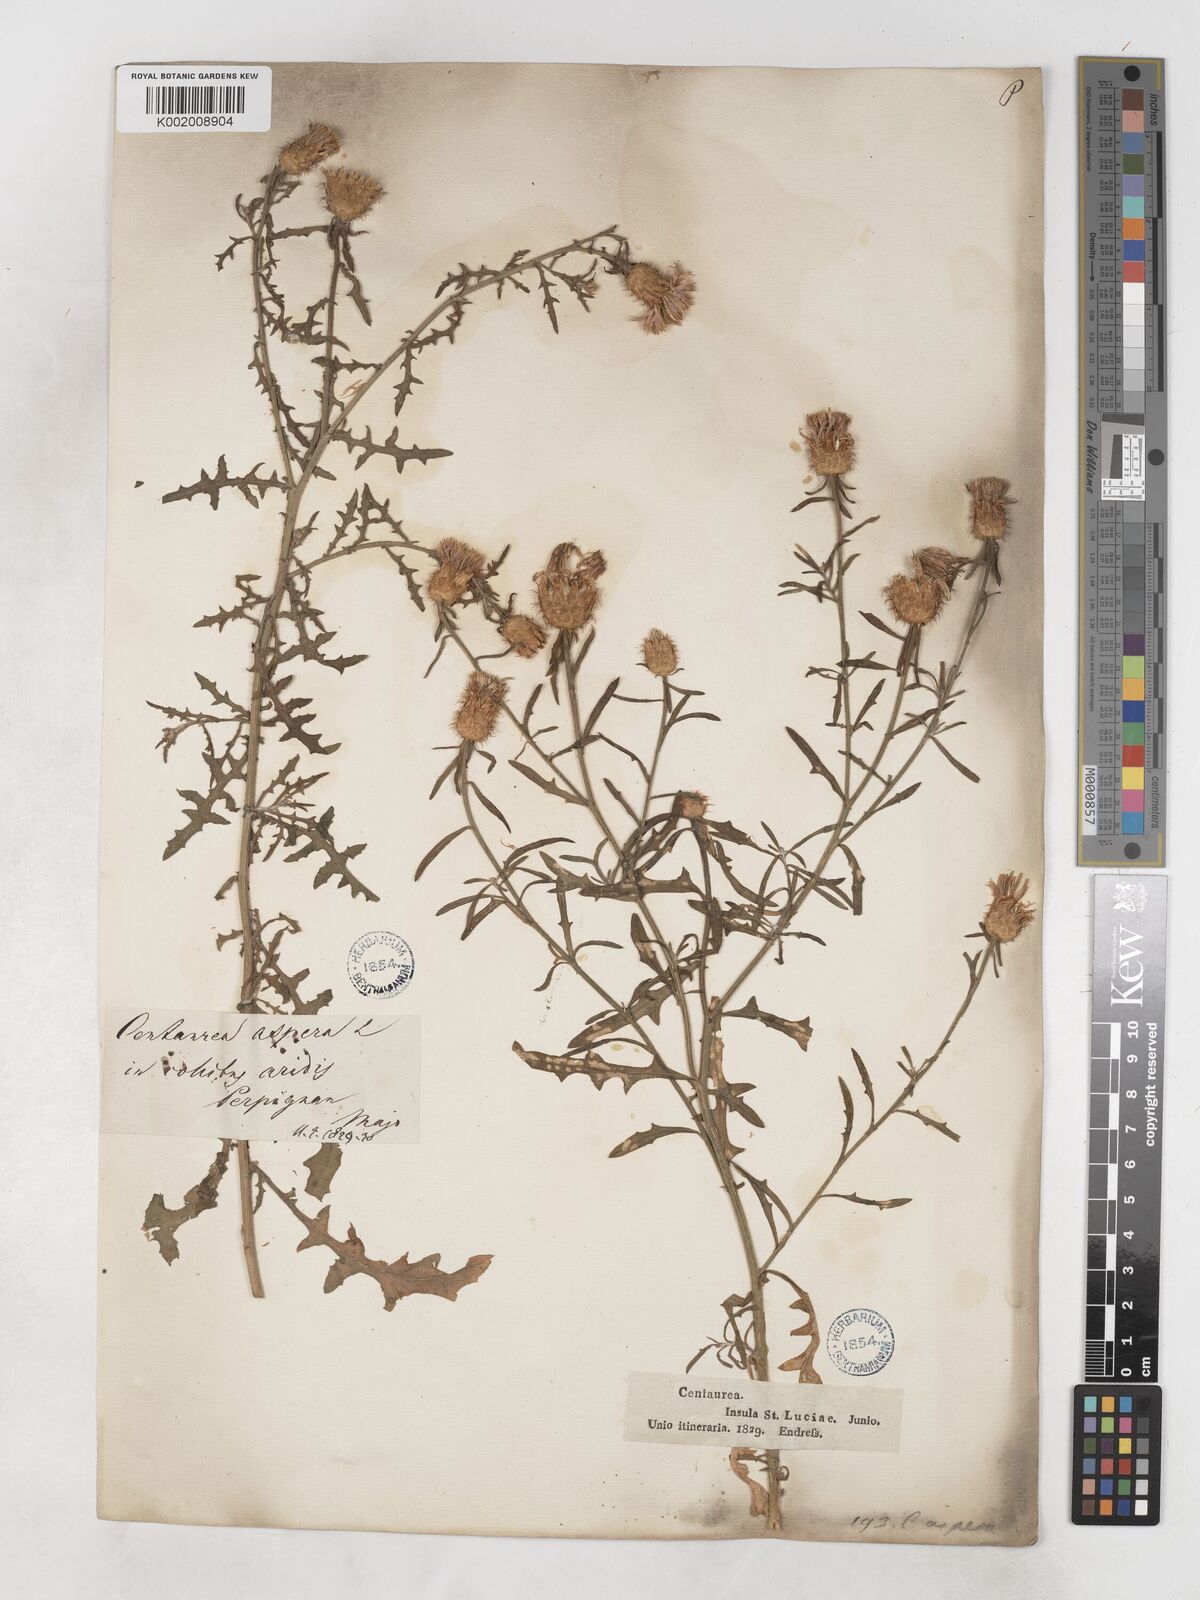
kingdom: Plantae
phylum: Tracheophyta
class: Magnoliopsida
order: Asterales
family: Asteraceae
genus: Centaurea
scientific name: Centaurea aspera
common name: Rough star-thistle
